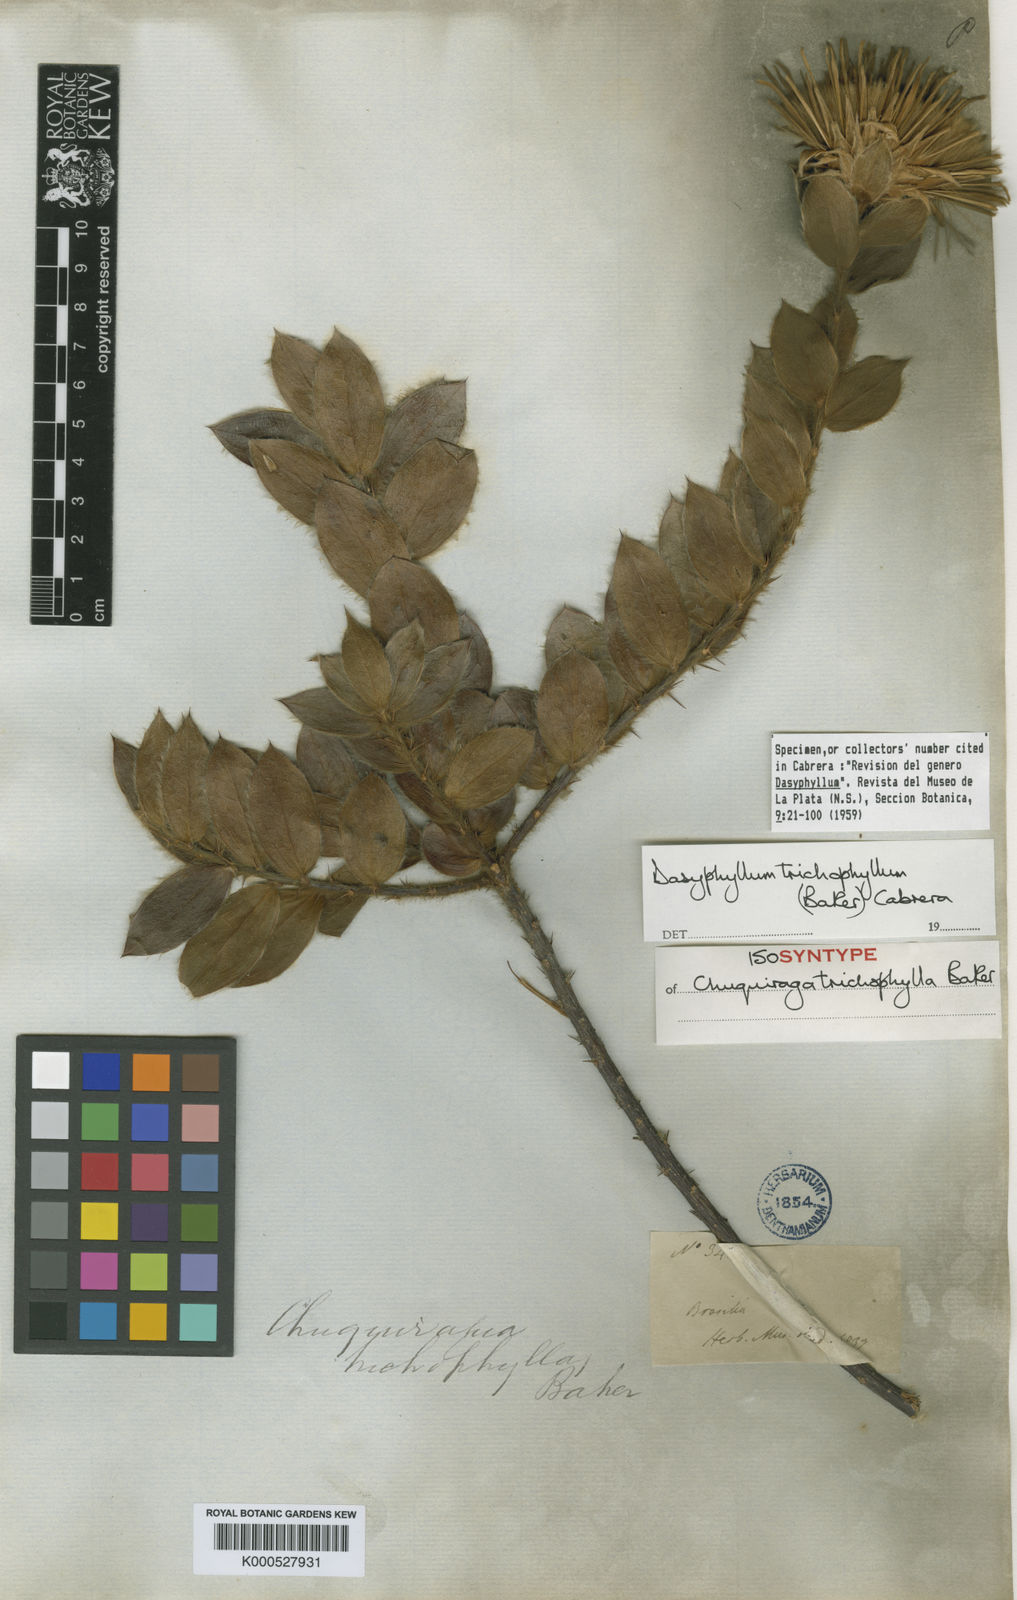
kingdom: Plantae
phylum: Tracheophyta
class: Magnoliopsida
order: Asterales
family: Asteraceae
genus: Dasyphyllum
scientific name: Dasyphyllum trichophyllum
